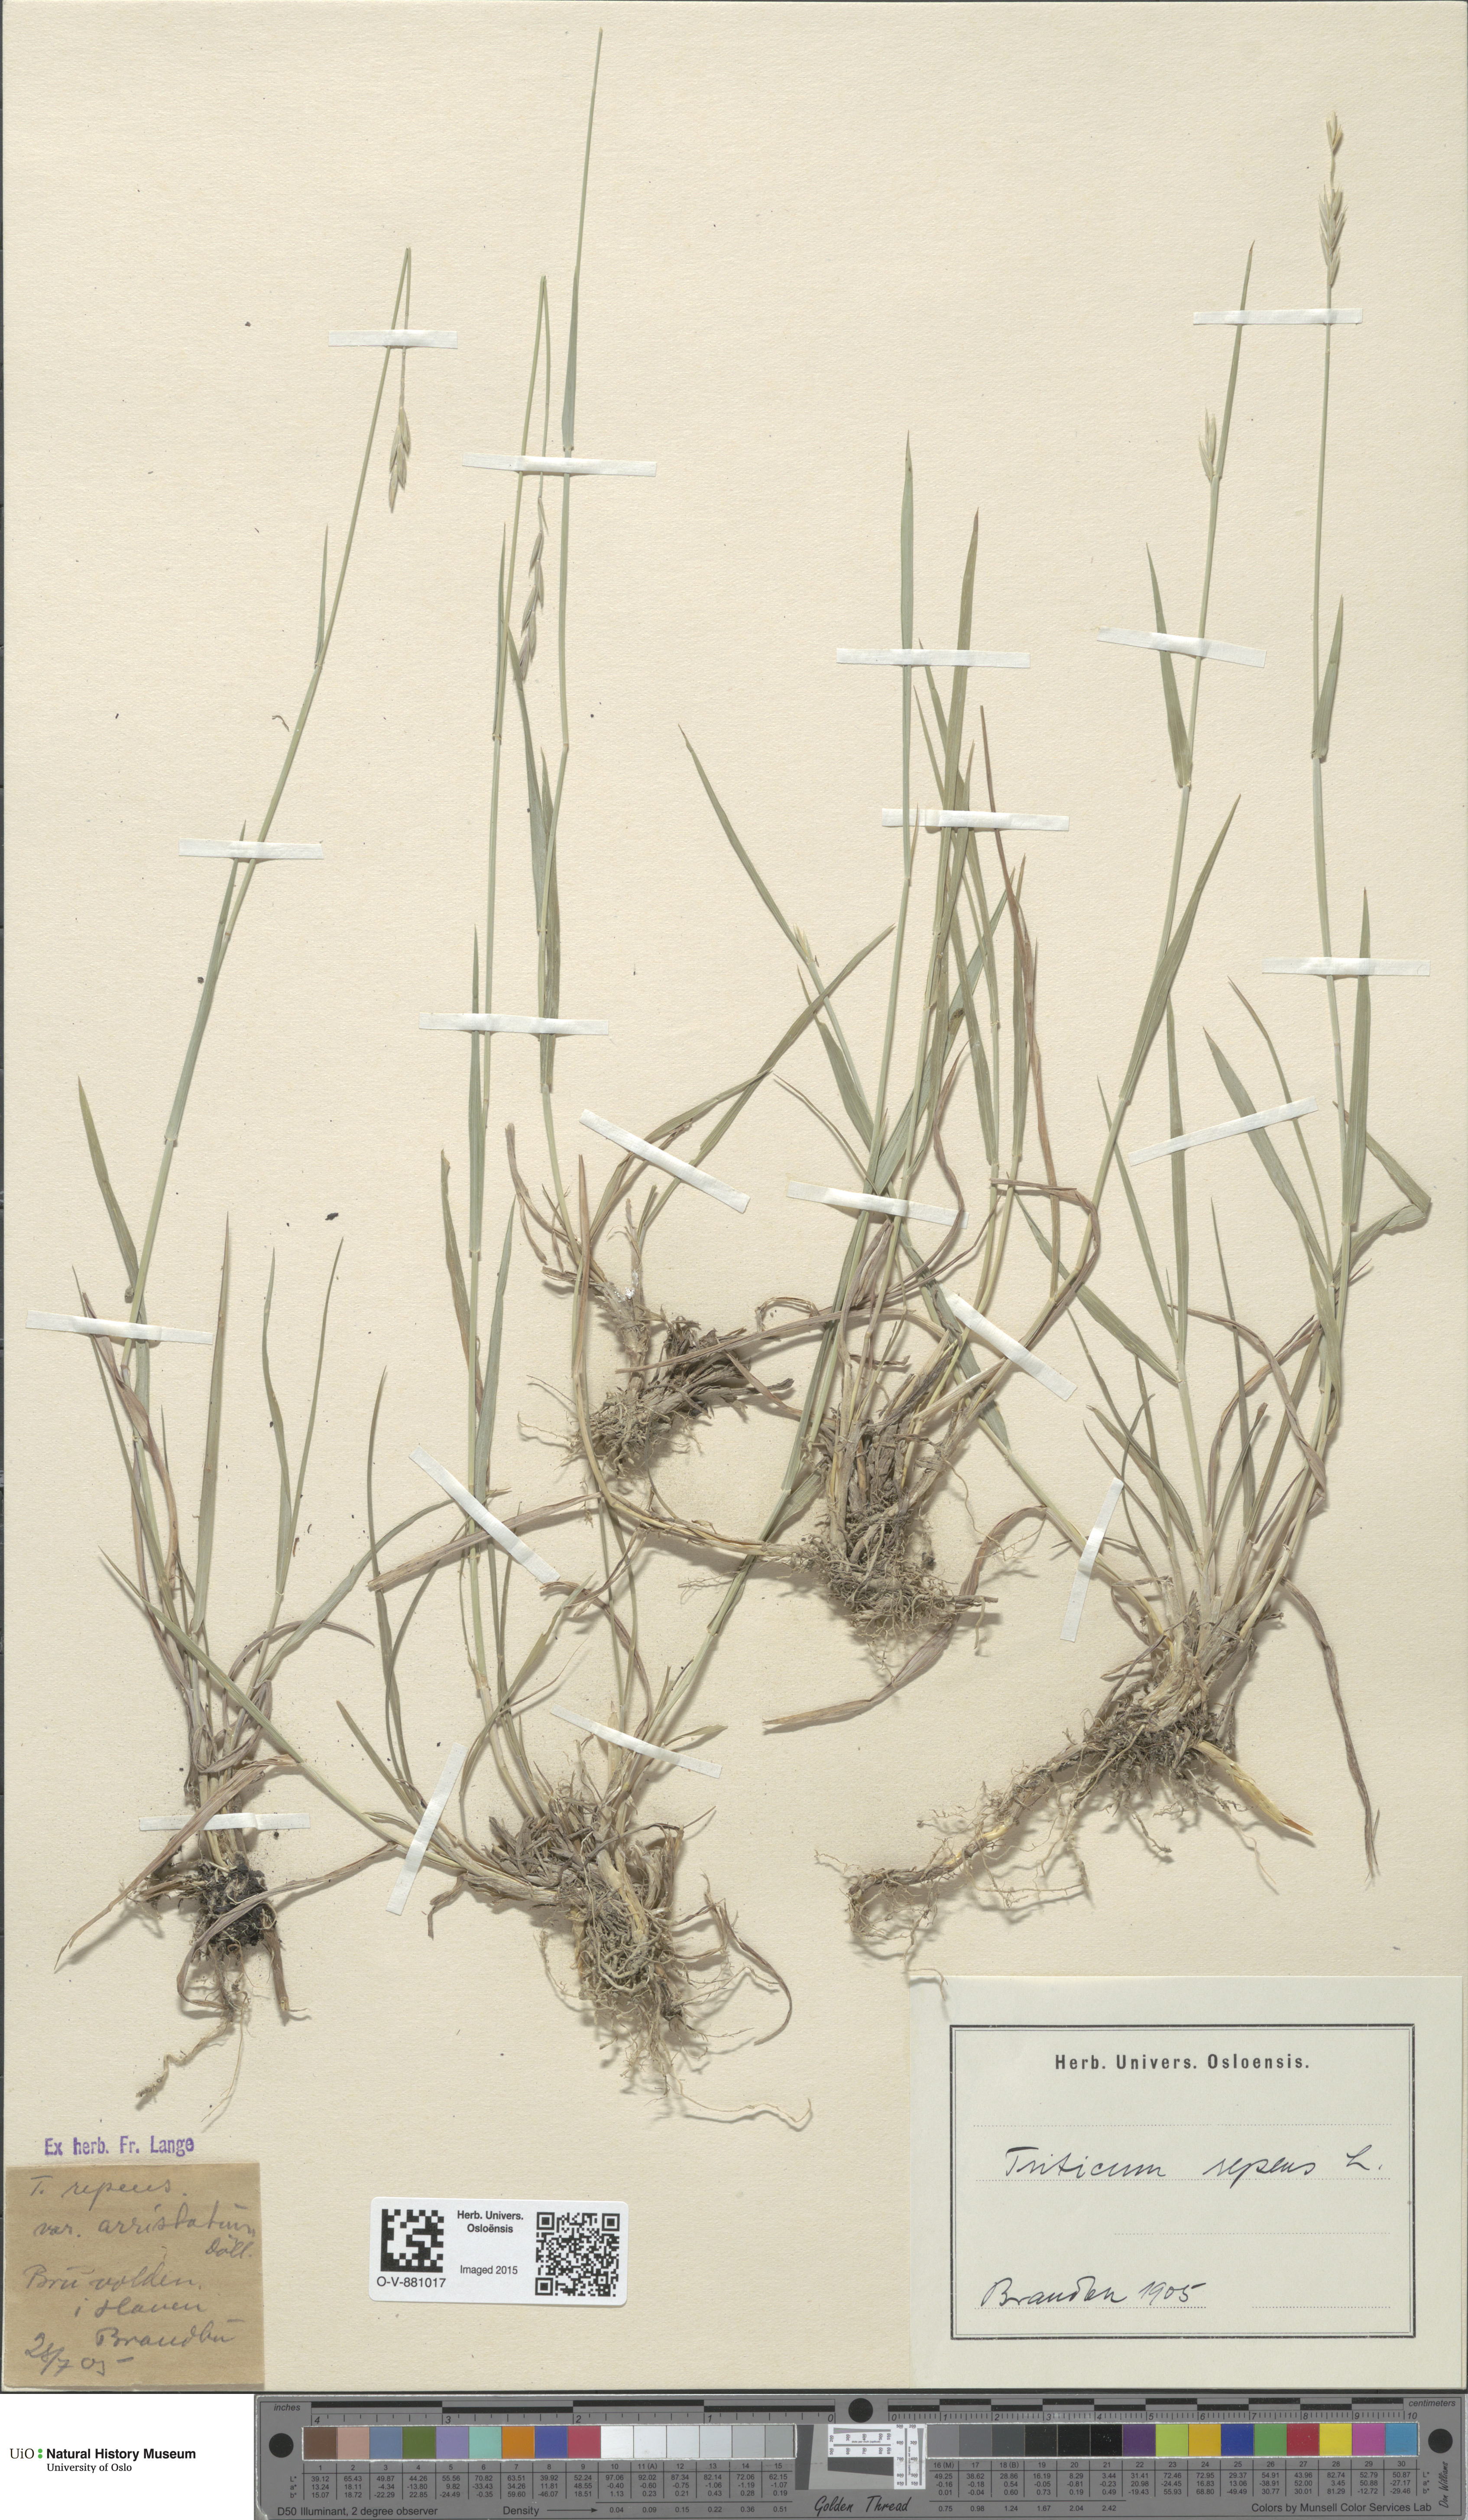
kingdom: Plantae
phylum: Tracheophyta
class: Liliopsida
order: Poales
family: Poaceae
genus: Elymus
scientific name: Elymus repens
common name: Quackgrass
